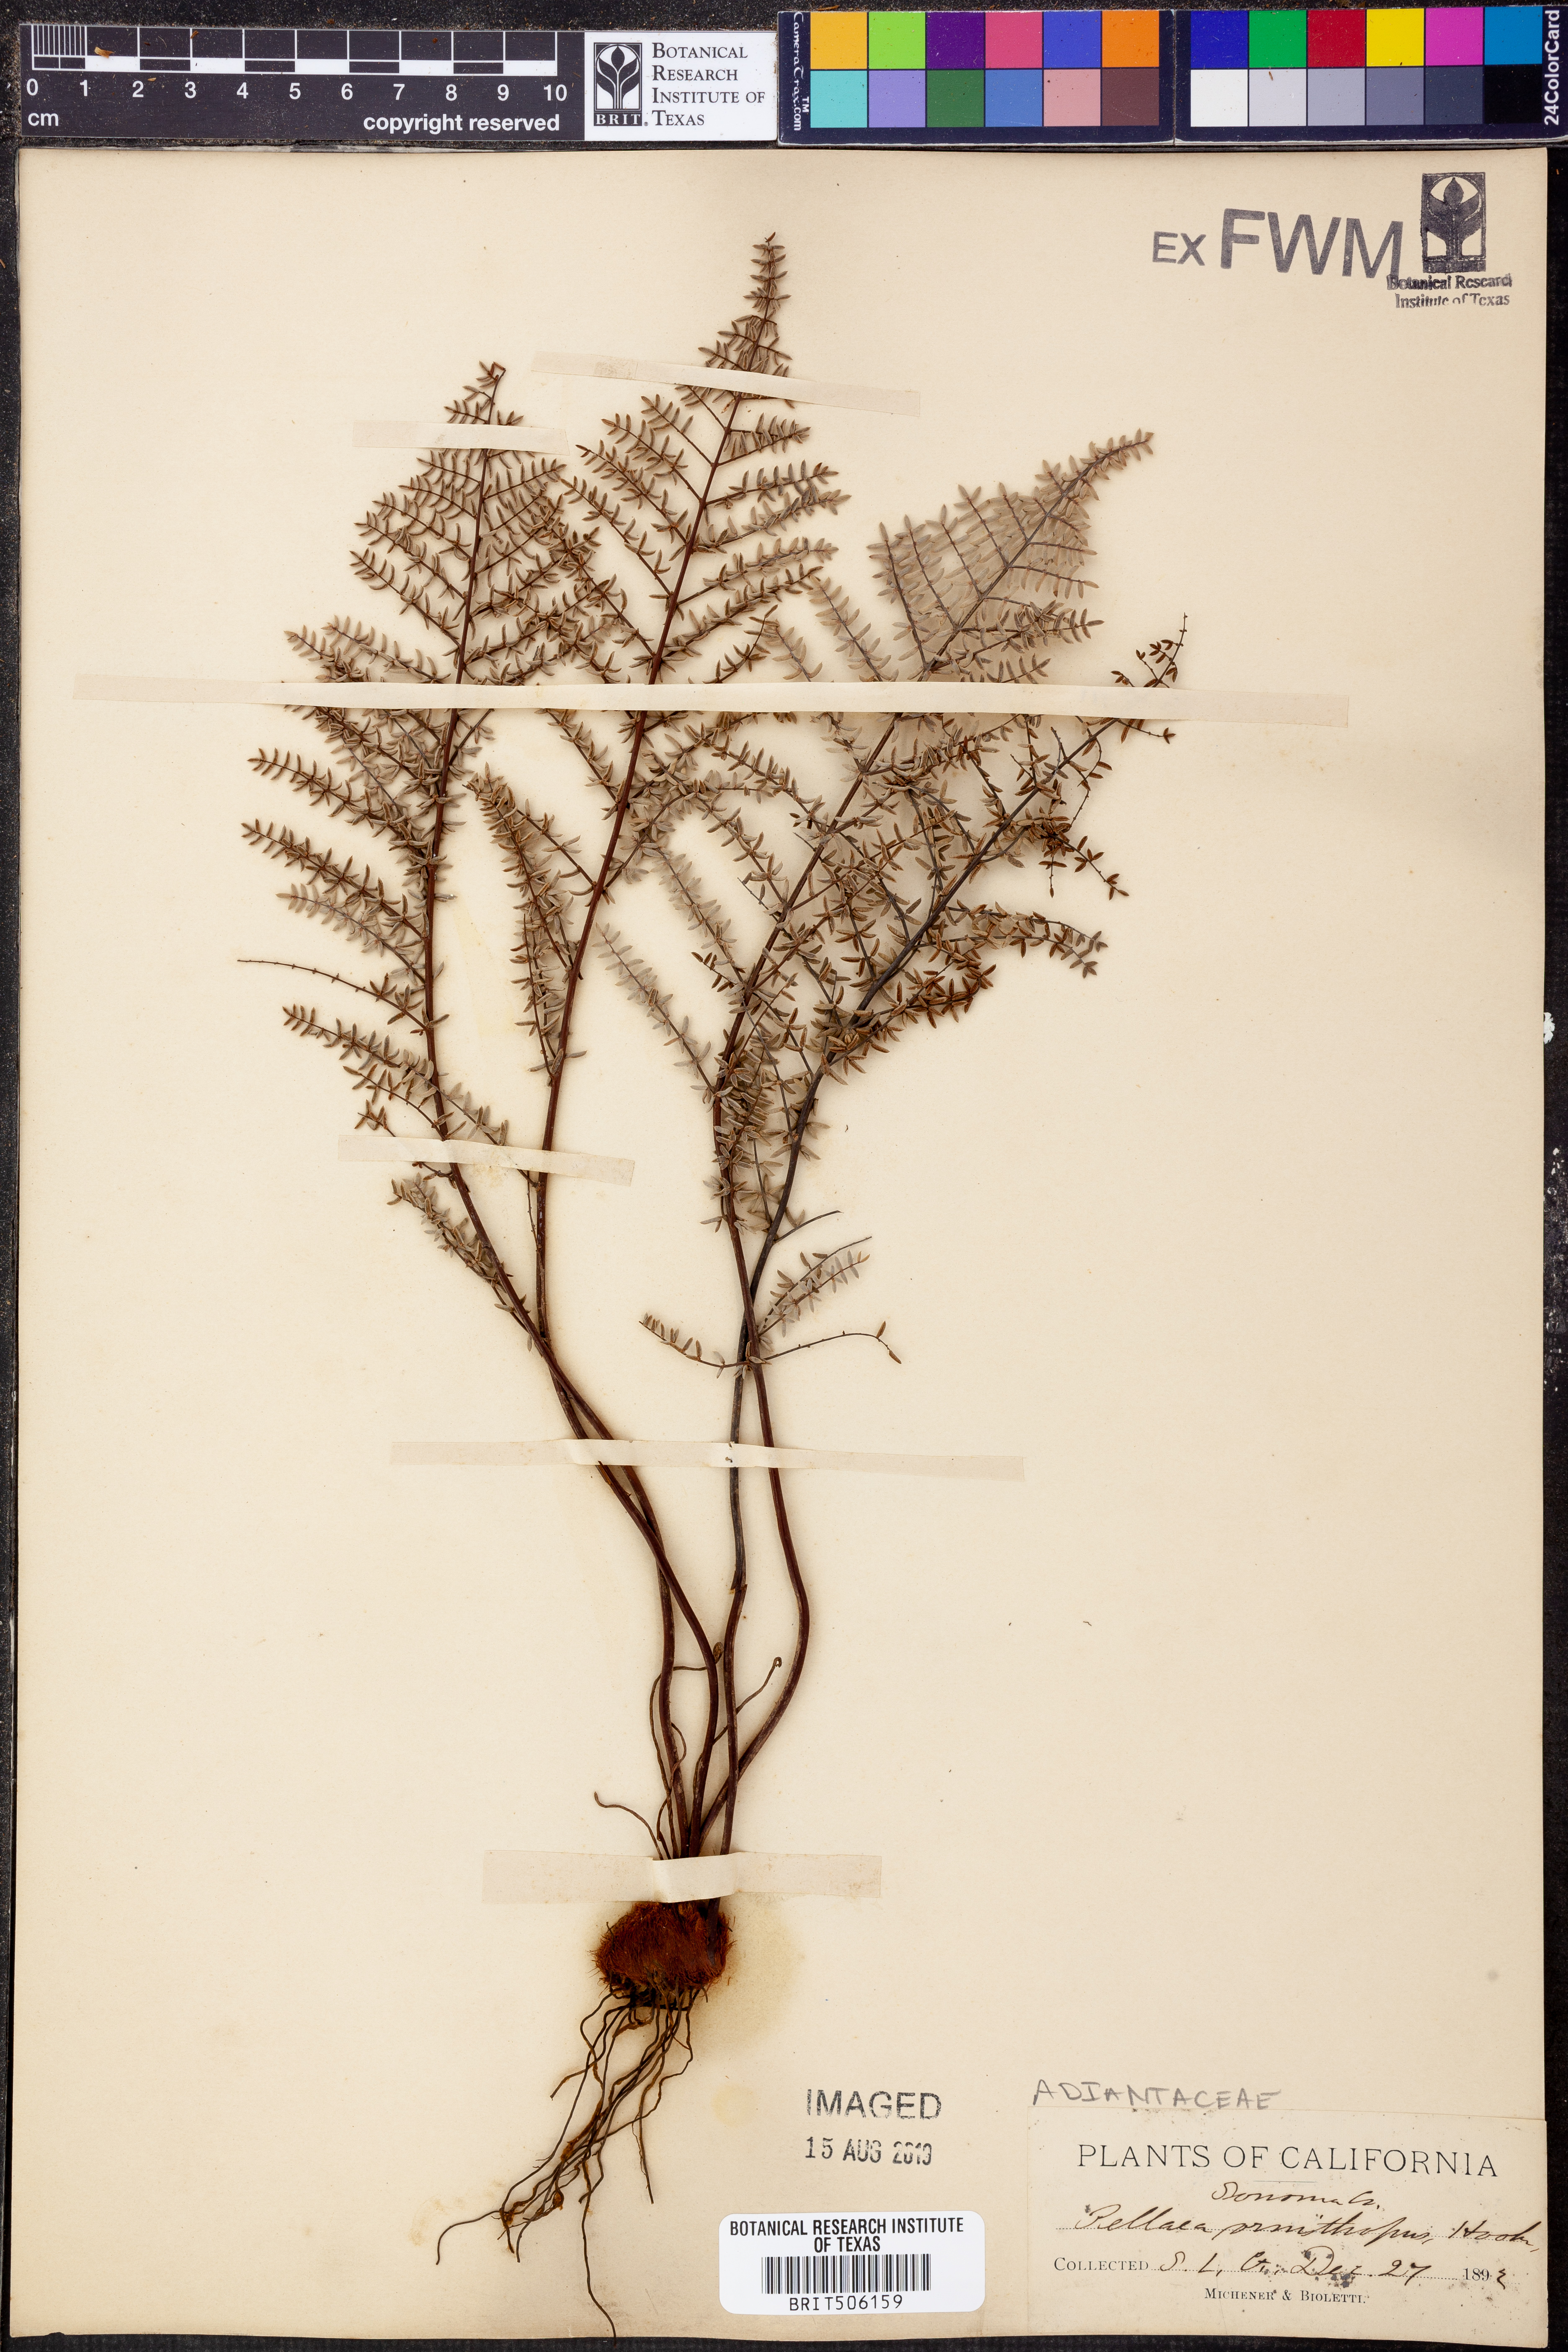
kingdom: Plantae
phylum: Tracheophyta
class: Polypodiopsida
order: Polypodiales
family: Pteridaceae
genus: Pellaea
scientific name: Pellaea mucronata
